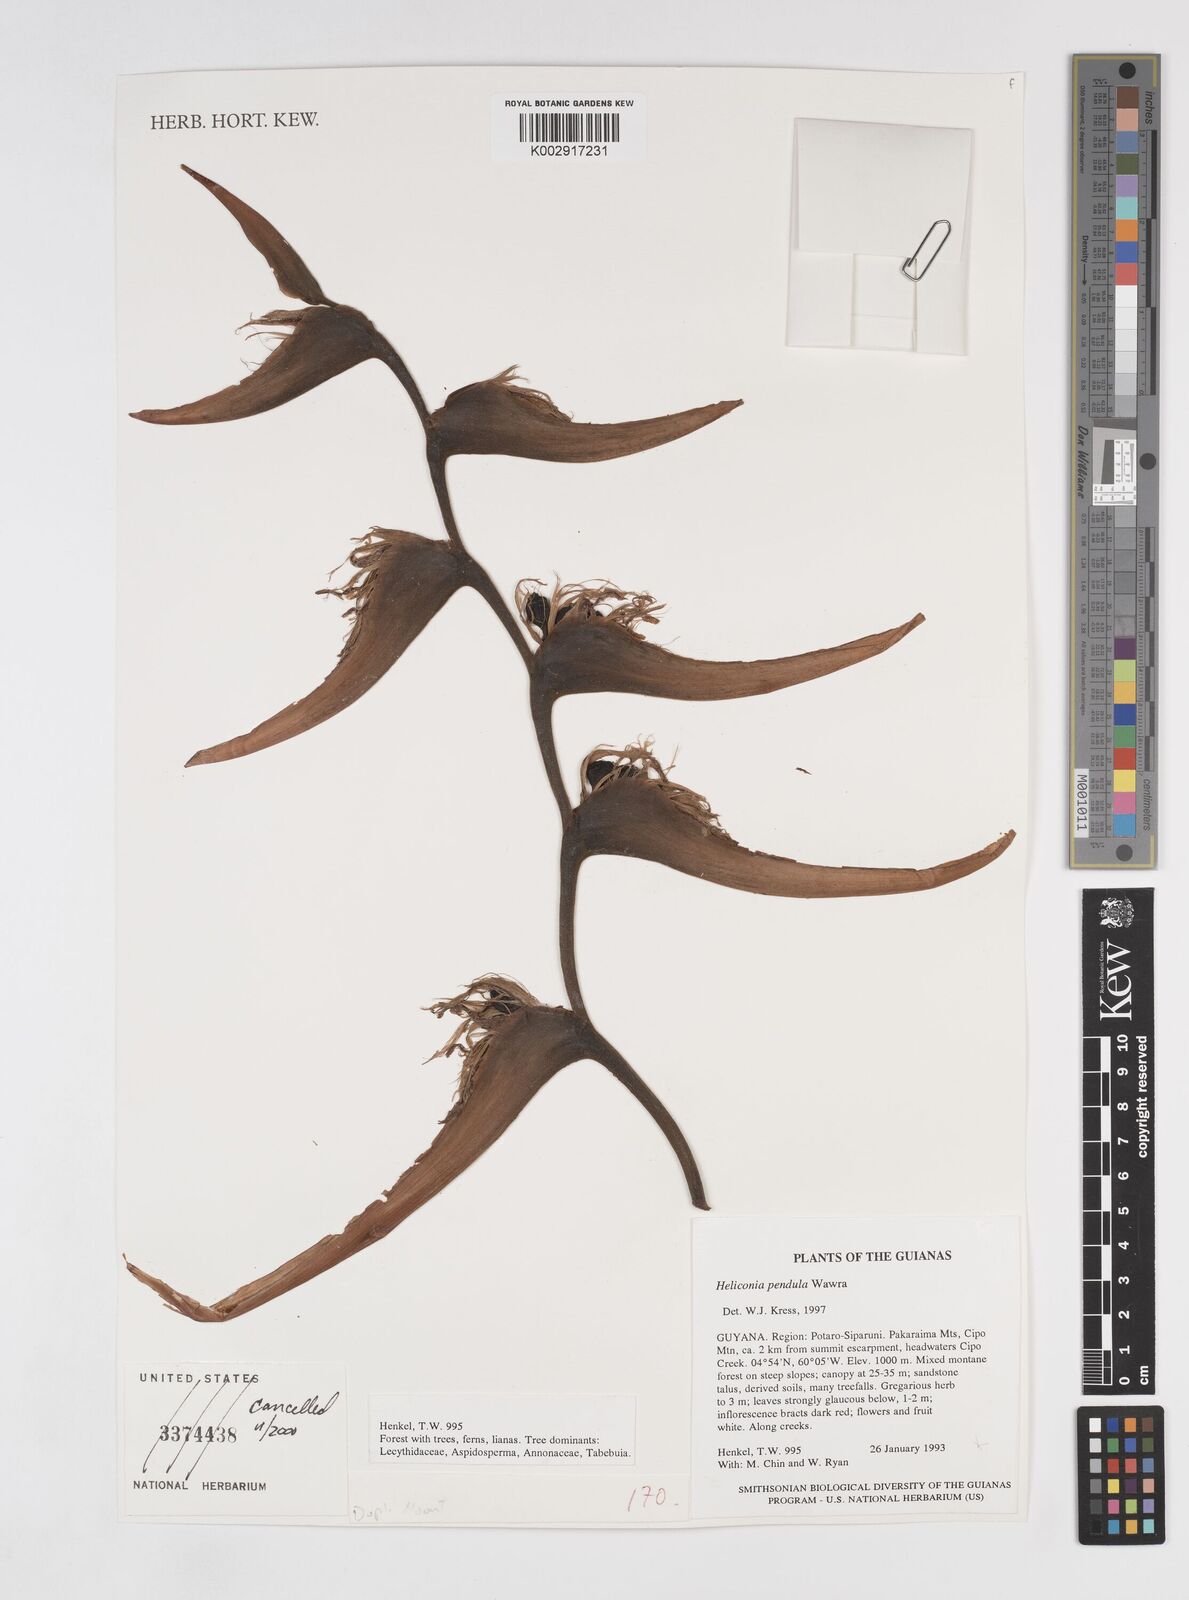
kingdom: Plantae
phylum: Tracheophyta
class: Liliopsida
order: Zingiberales
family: Heliconiaceae
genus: Heliconia
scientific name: Heliconia pendula
